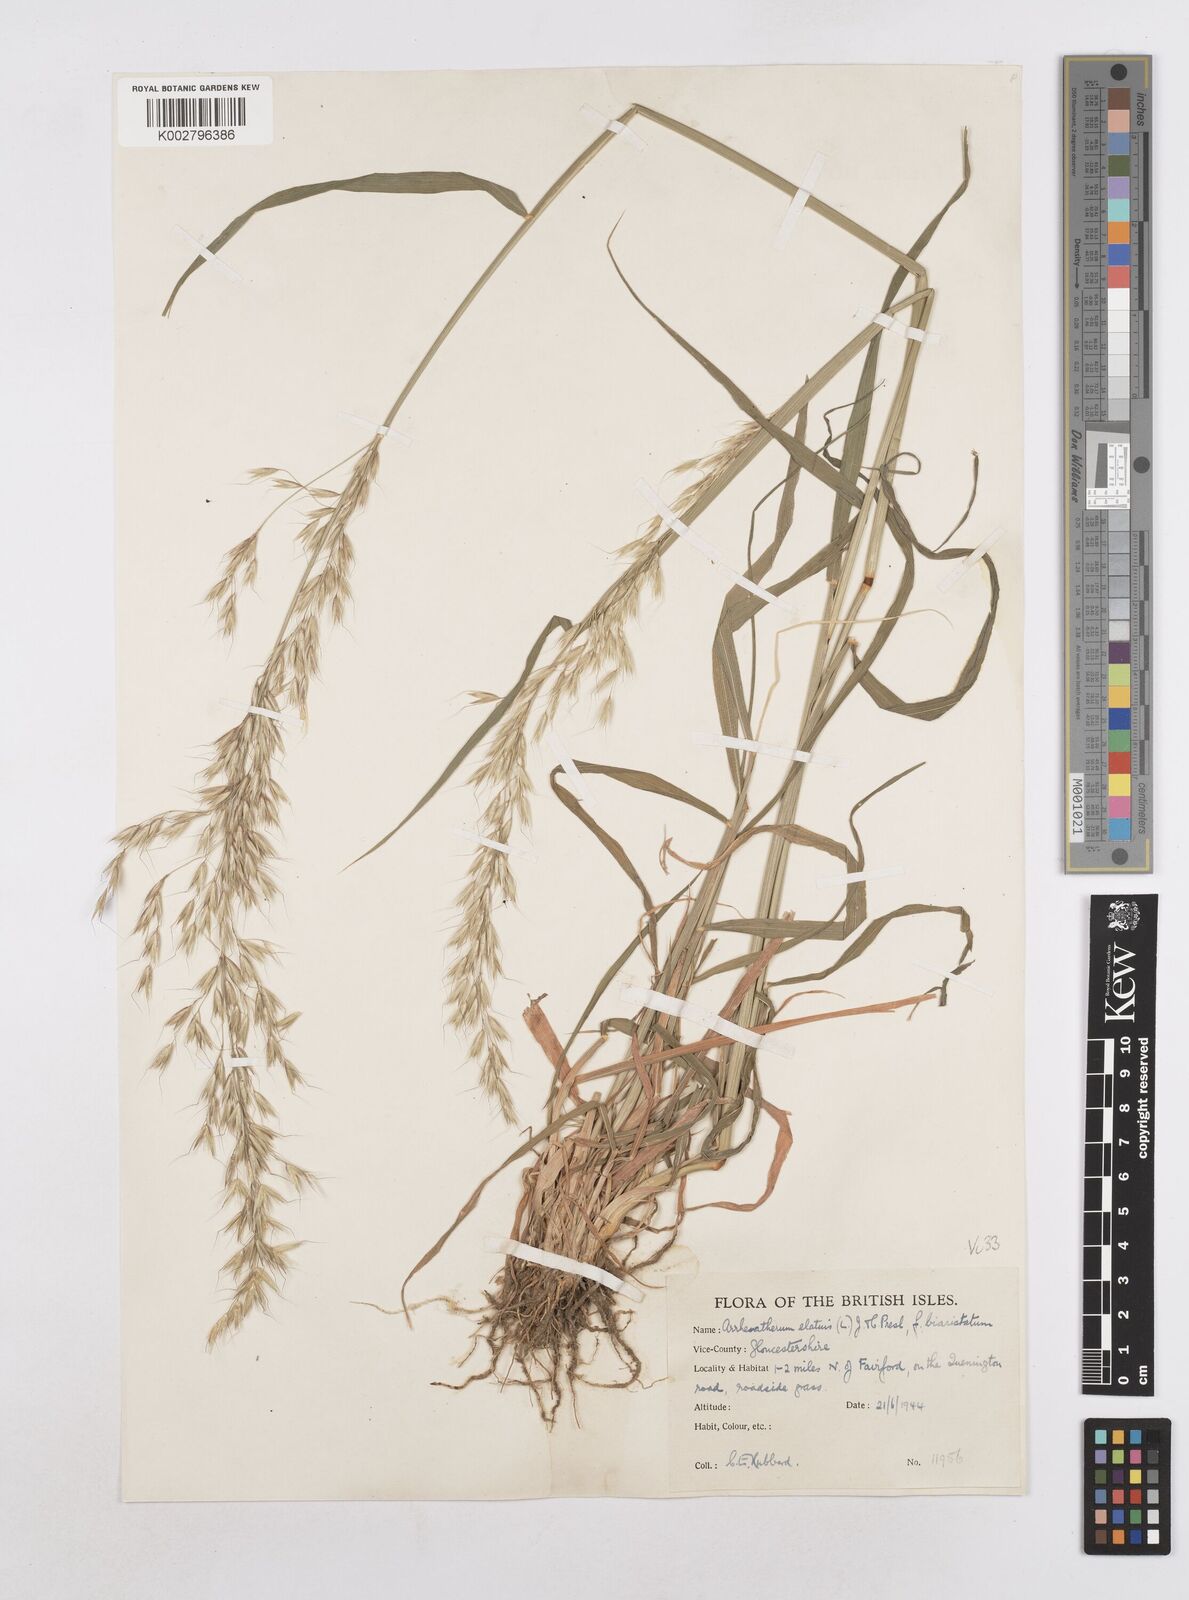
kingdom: Plantae
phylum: Tracheophyta
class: Liliopsida
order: Poales
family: Poaceae
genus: Arrhenatherum
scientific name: Arrhenatherum elatius
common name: Tall oatgrass
